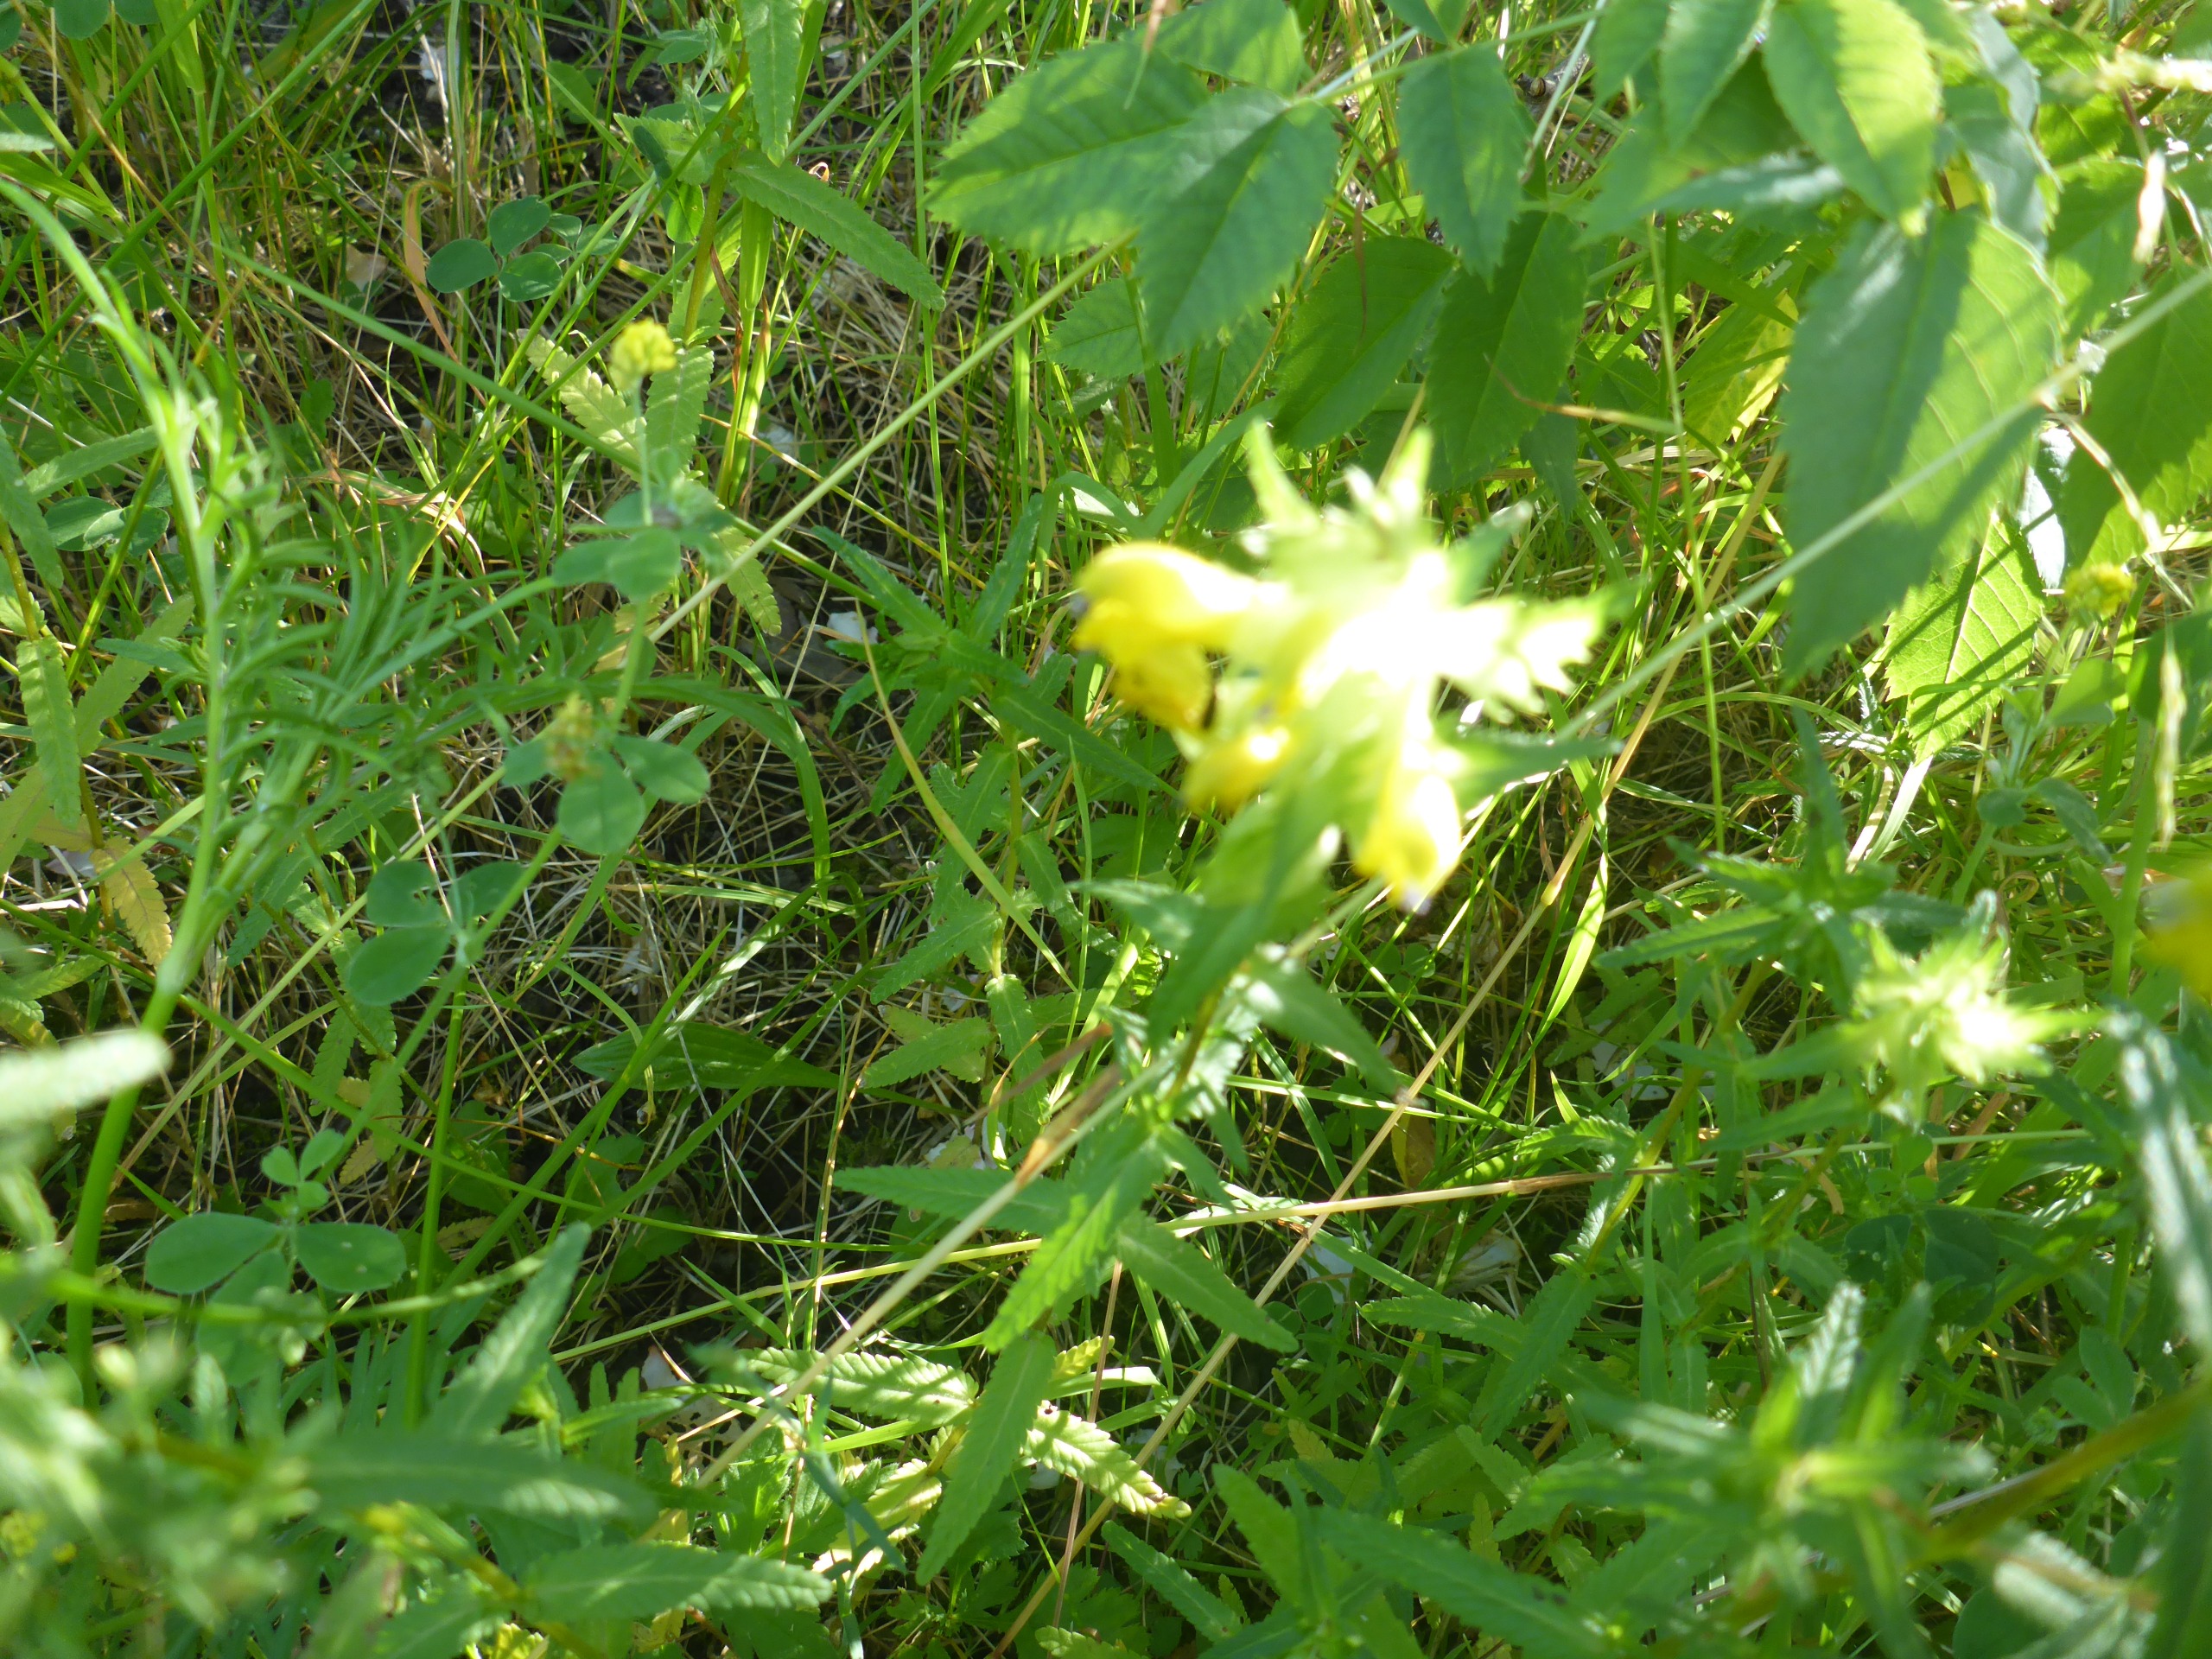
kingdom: Plantae
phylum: Tracheophyta
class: Magnoliopsida
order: Lamiales
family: Orobanchaceae
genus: Rhinanthus
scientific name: Rhinanthus
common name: Stor skjaller
